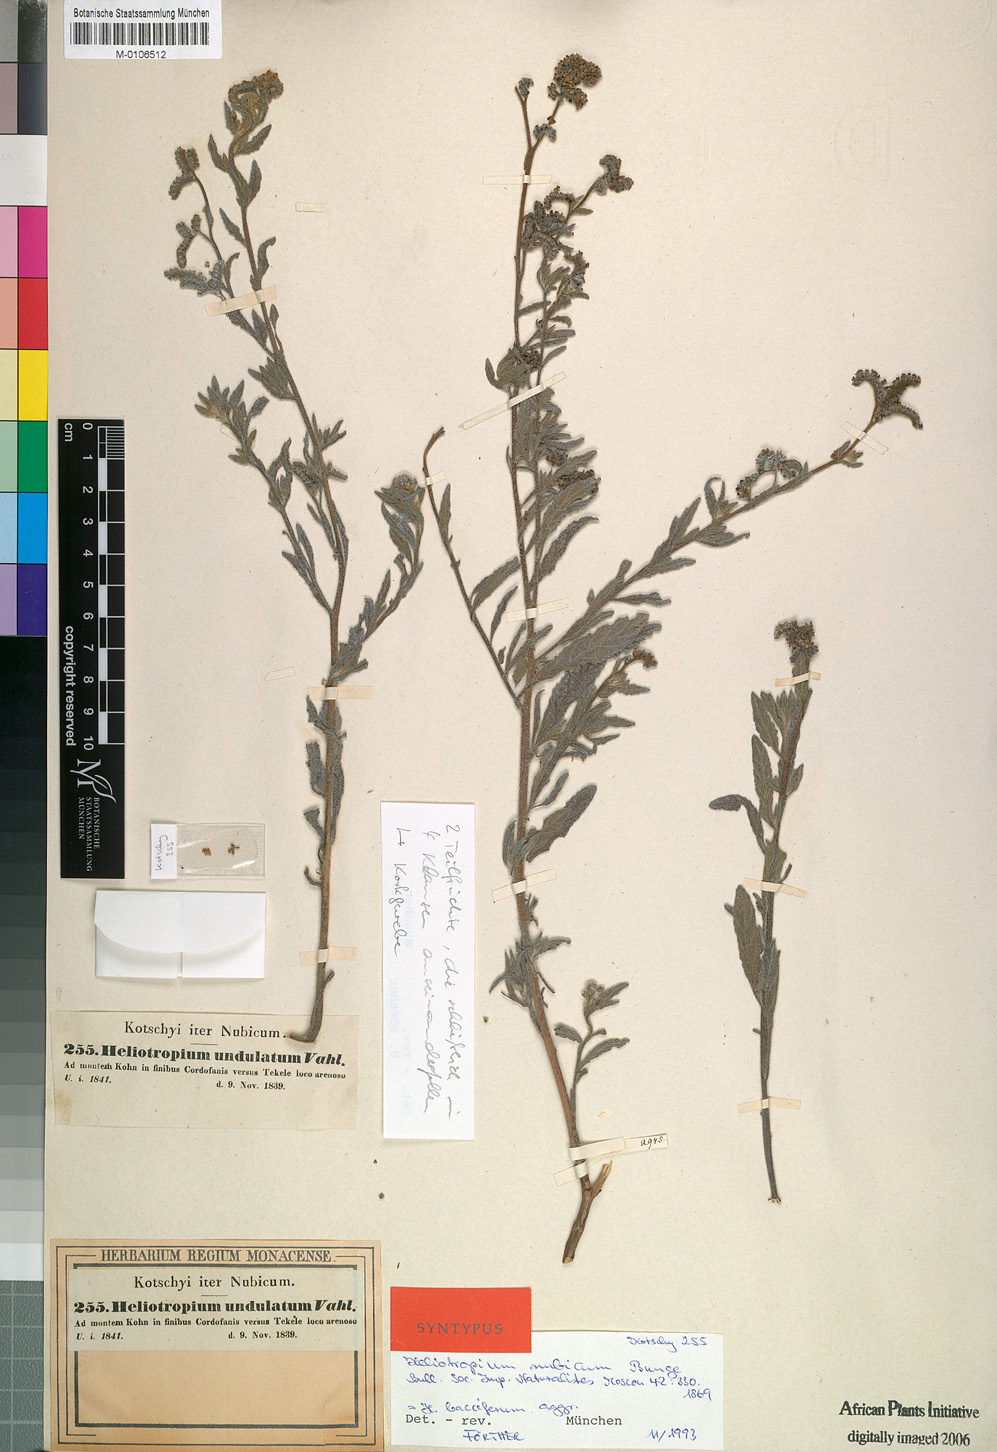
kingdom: Plantae
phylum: Tracheophyta
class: Magnoliopsida
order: Boraginales
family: Heliotropiaceae
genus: Heliotropium
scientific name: Heliotropium bacciferum
